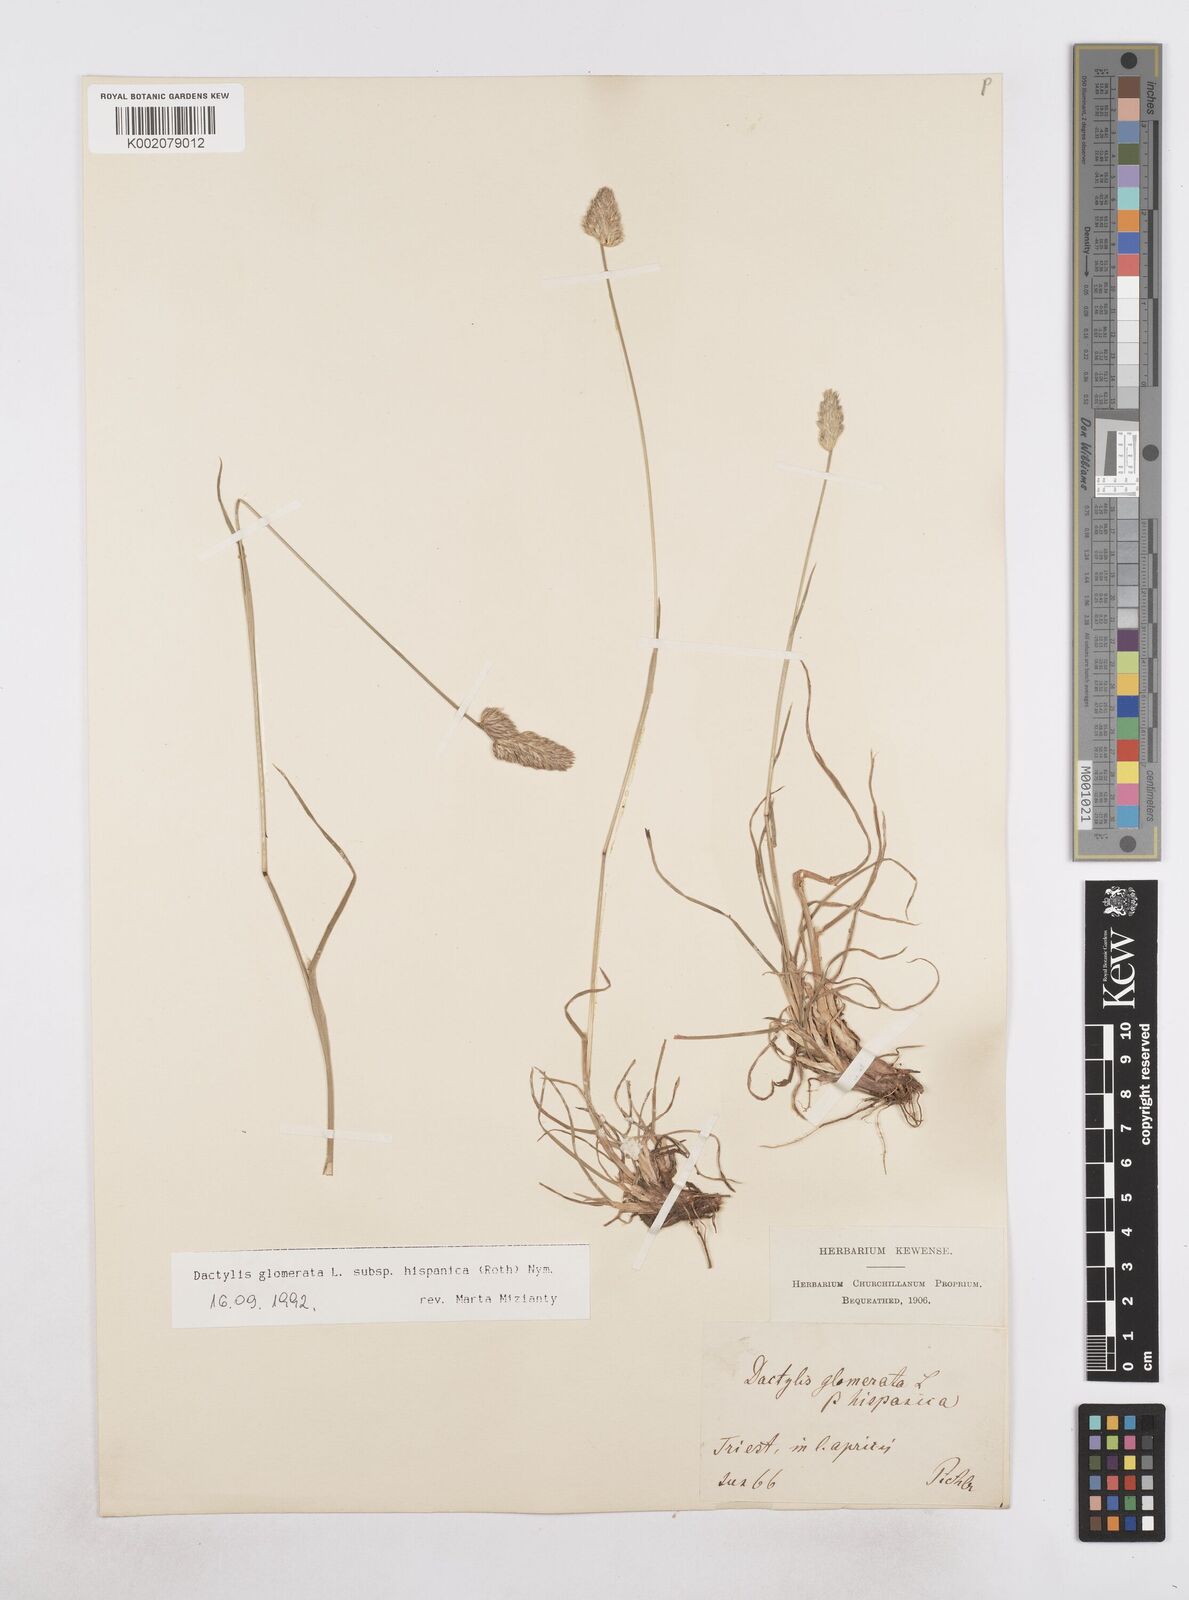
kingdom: Plantae
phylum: Tracheophyta
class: Liliopsida
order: Poales
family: Poaceae
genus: Dactylis
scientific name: Dactylis glomerata
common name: Orchardgrass
